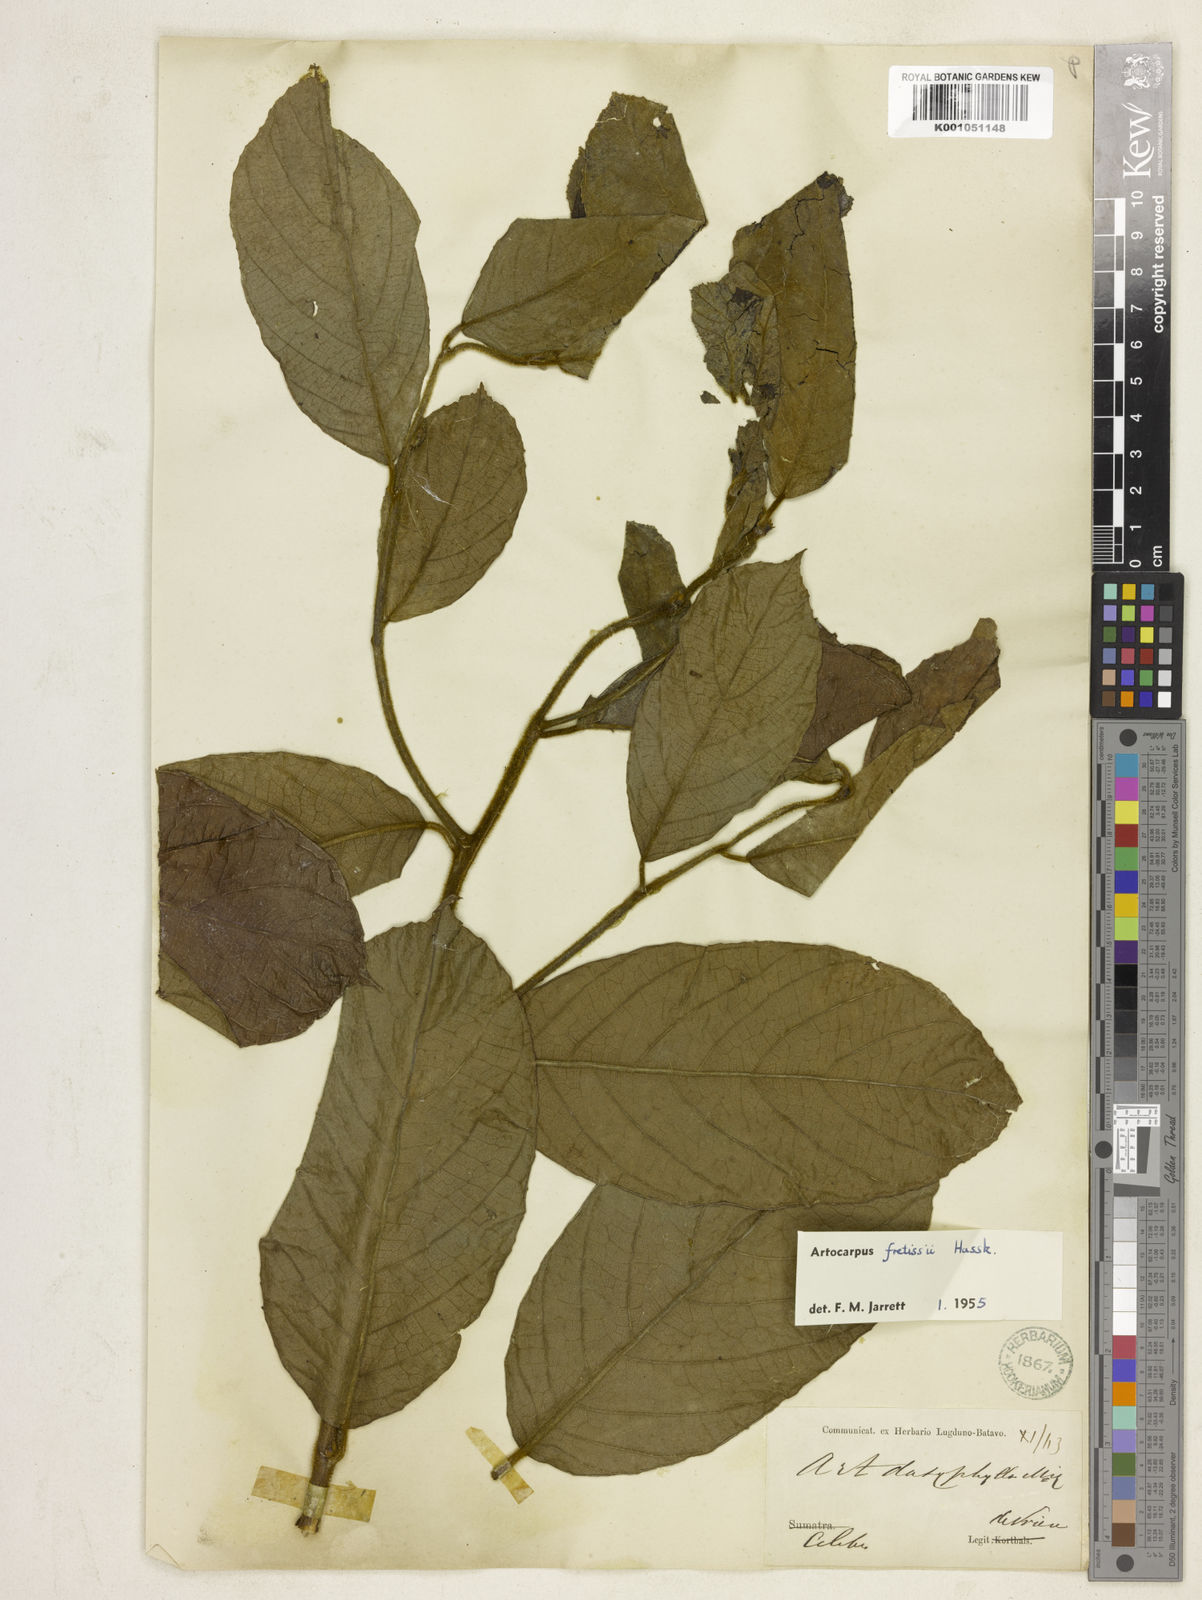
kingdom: Plantae
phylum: Tracheophyta
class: Magnoliopsida
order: Rosales
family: Moraceae
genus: Artocarpus
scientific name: Artocarpus lacucha
